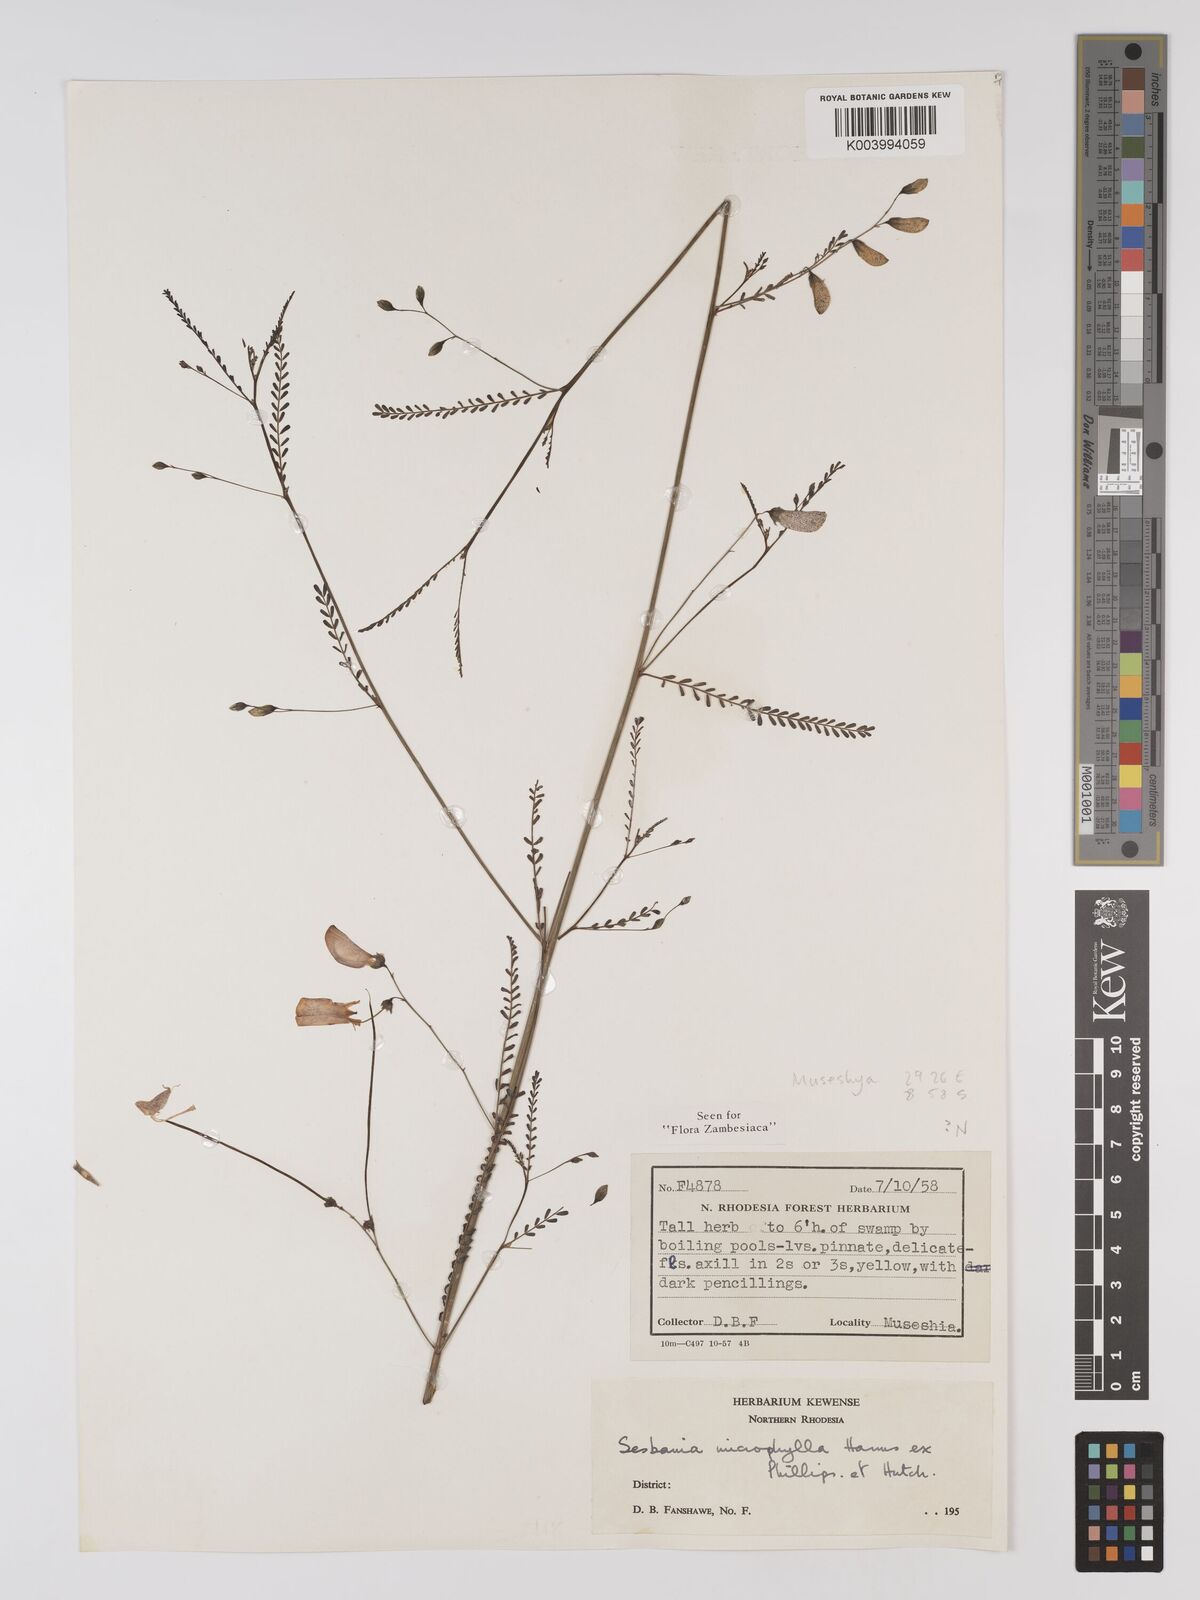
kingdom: Plantae
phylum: Tracheophyta
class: Magnoliopsida
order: Fabales
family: Fabaceae
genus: Sesbania
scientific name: Sesbania microphylla
